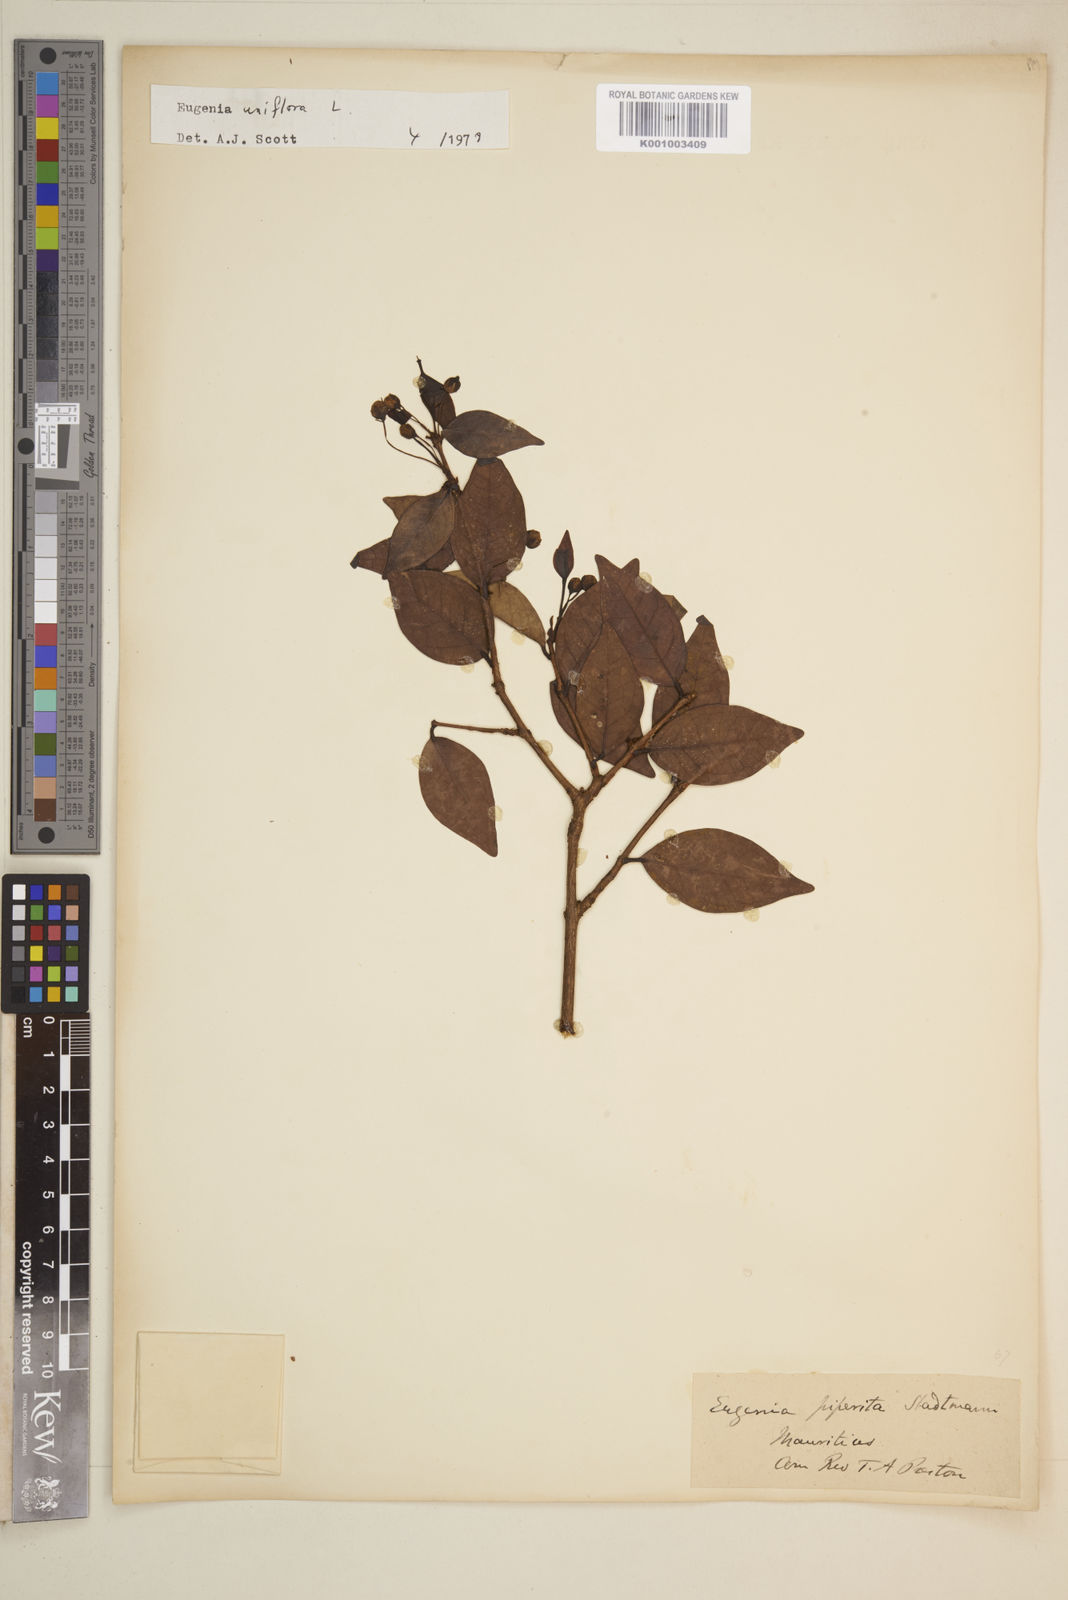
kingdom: Plantae
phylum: Tracheophyta
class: Magnoliopsida
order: Myrtales
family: Myrtaceae
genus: Eugenia
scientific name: Eugenia uniflora
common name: Surinam cherry
